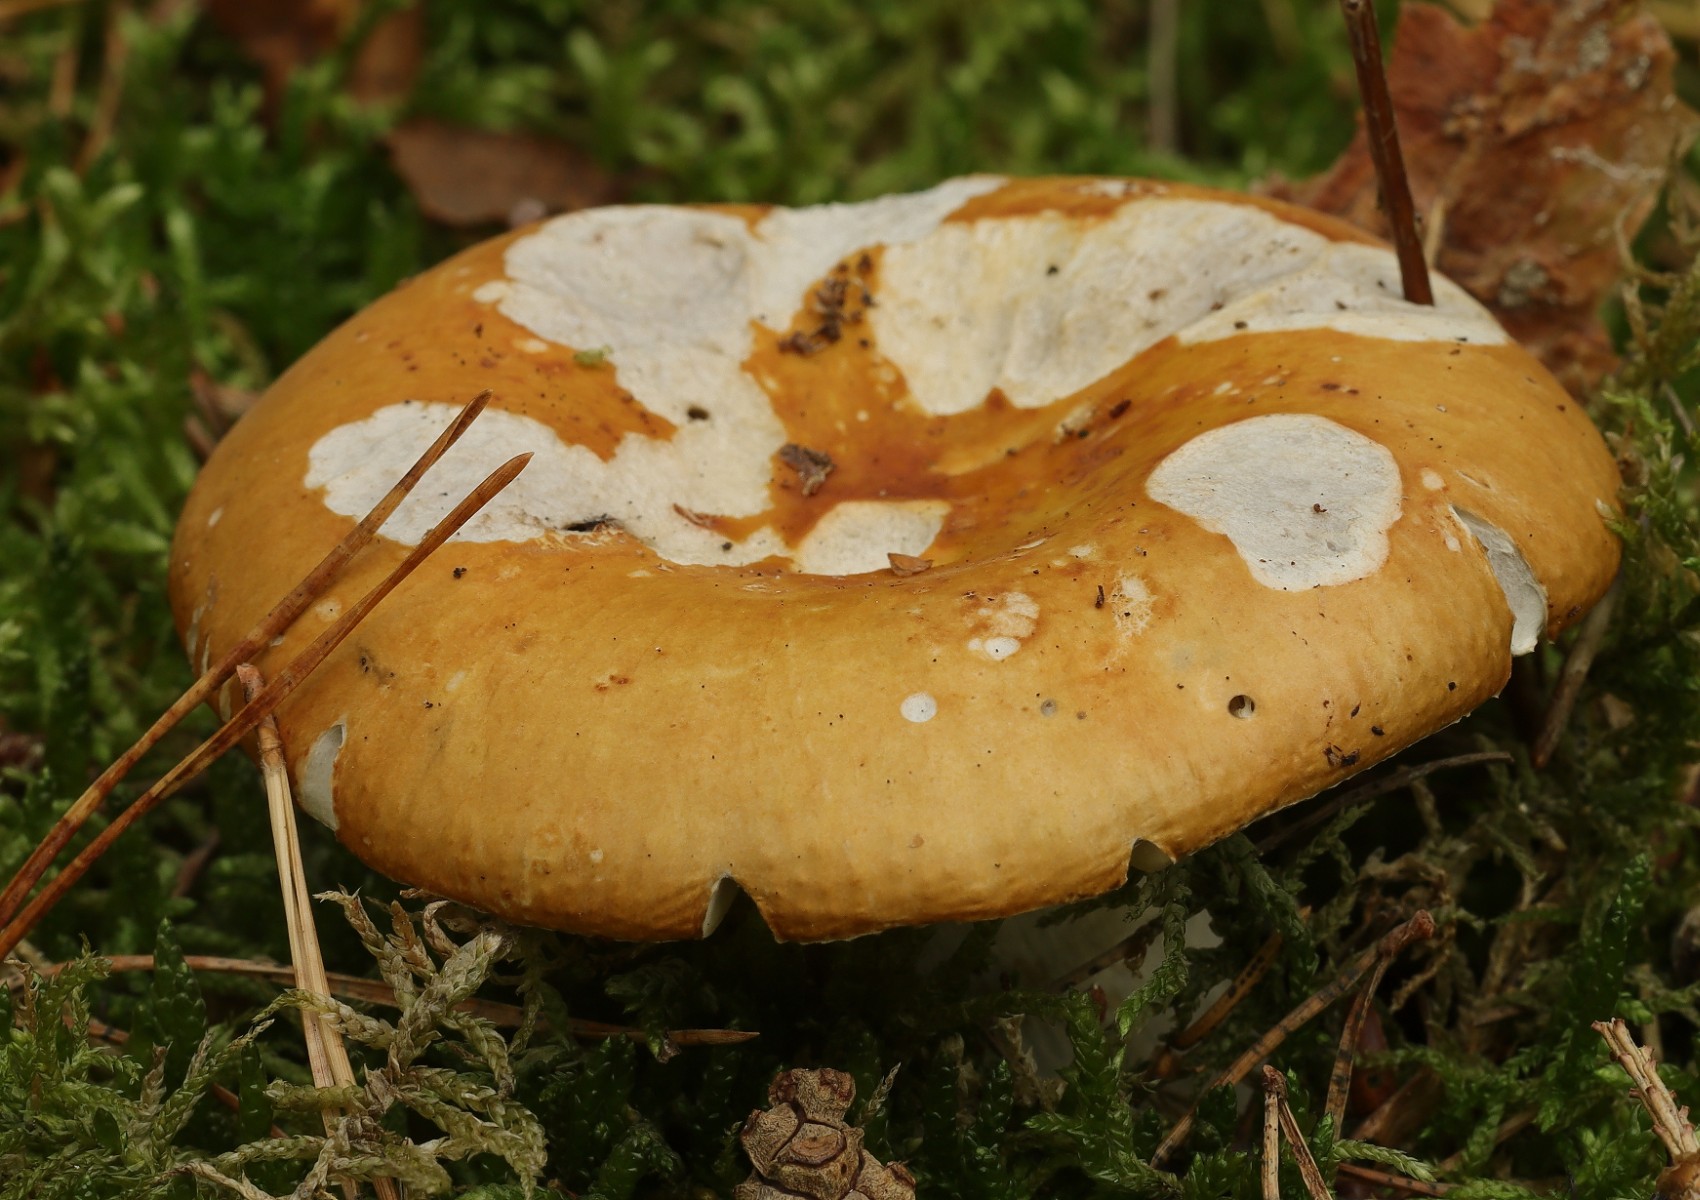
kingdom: Fungi
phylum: Basidiomycota
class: Agaricomycetes
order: Russulales
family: Russulaceae
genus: Russula
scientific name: Russula ochroleuca
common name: okkergul skørhat
